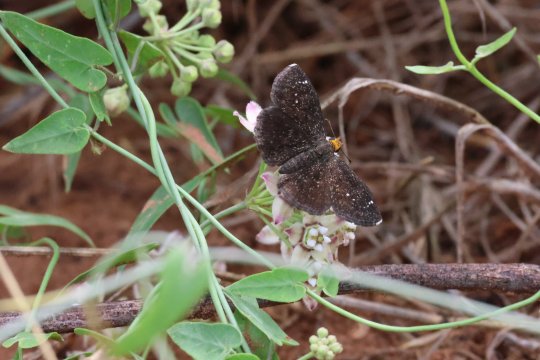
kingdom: Animalia
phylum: Arthropoda
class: Insecta
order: Lepidoptera
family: Hesperiidae
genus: Staphylus
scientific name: Staphylus ceos
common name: Golden-headed Scallopwing
